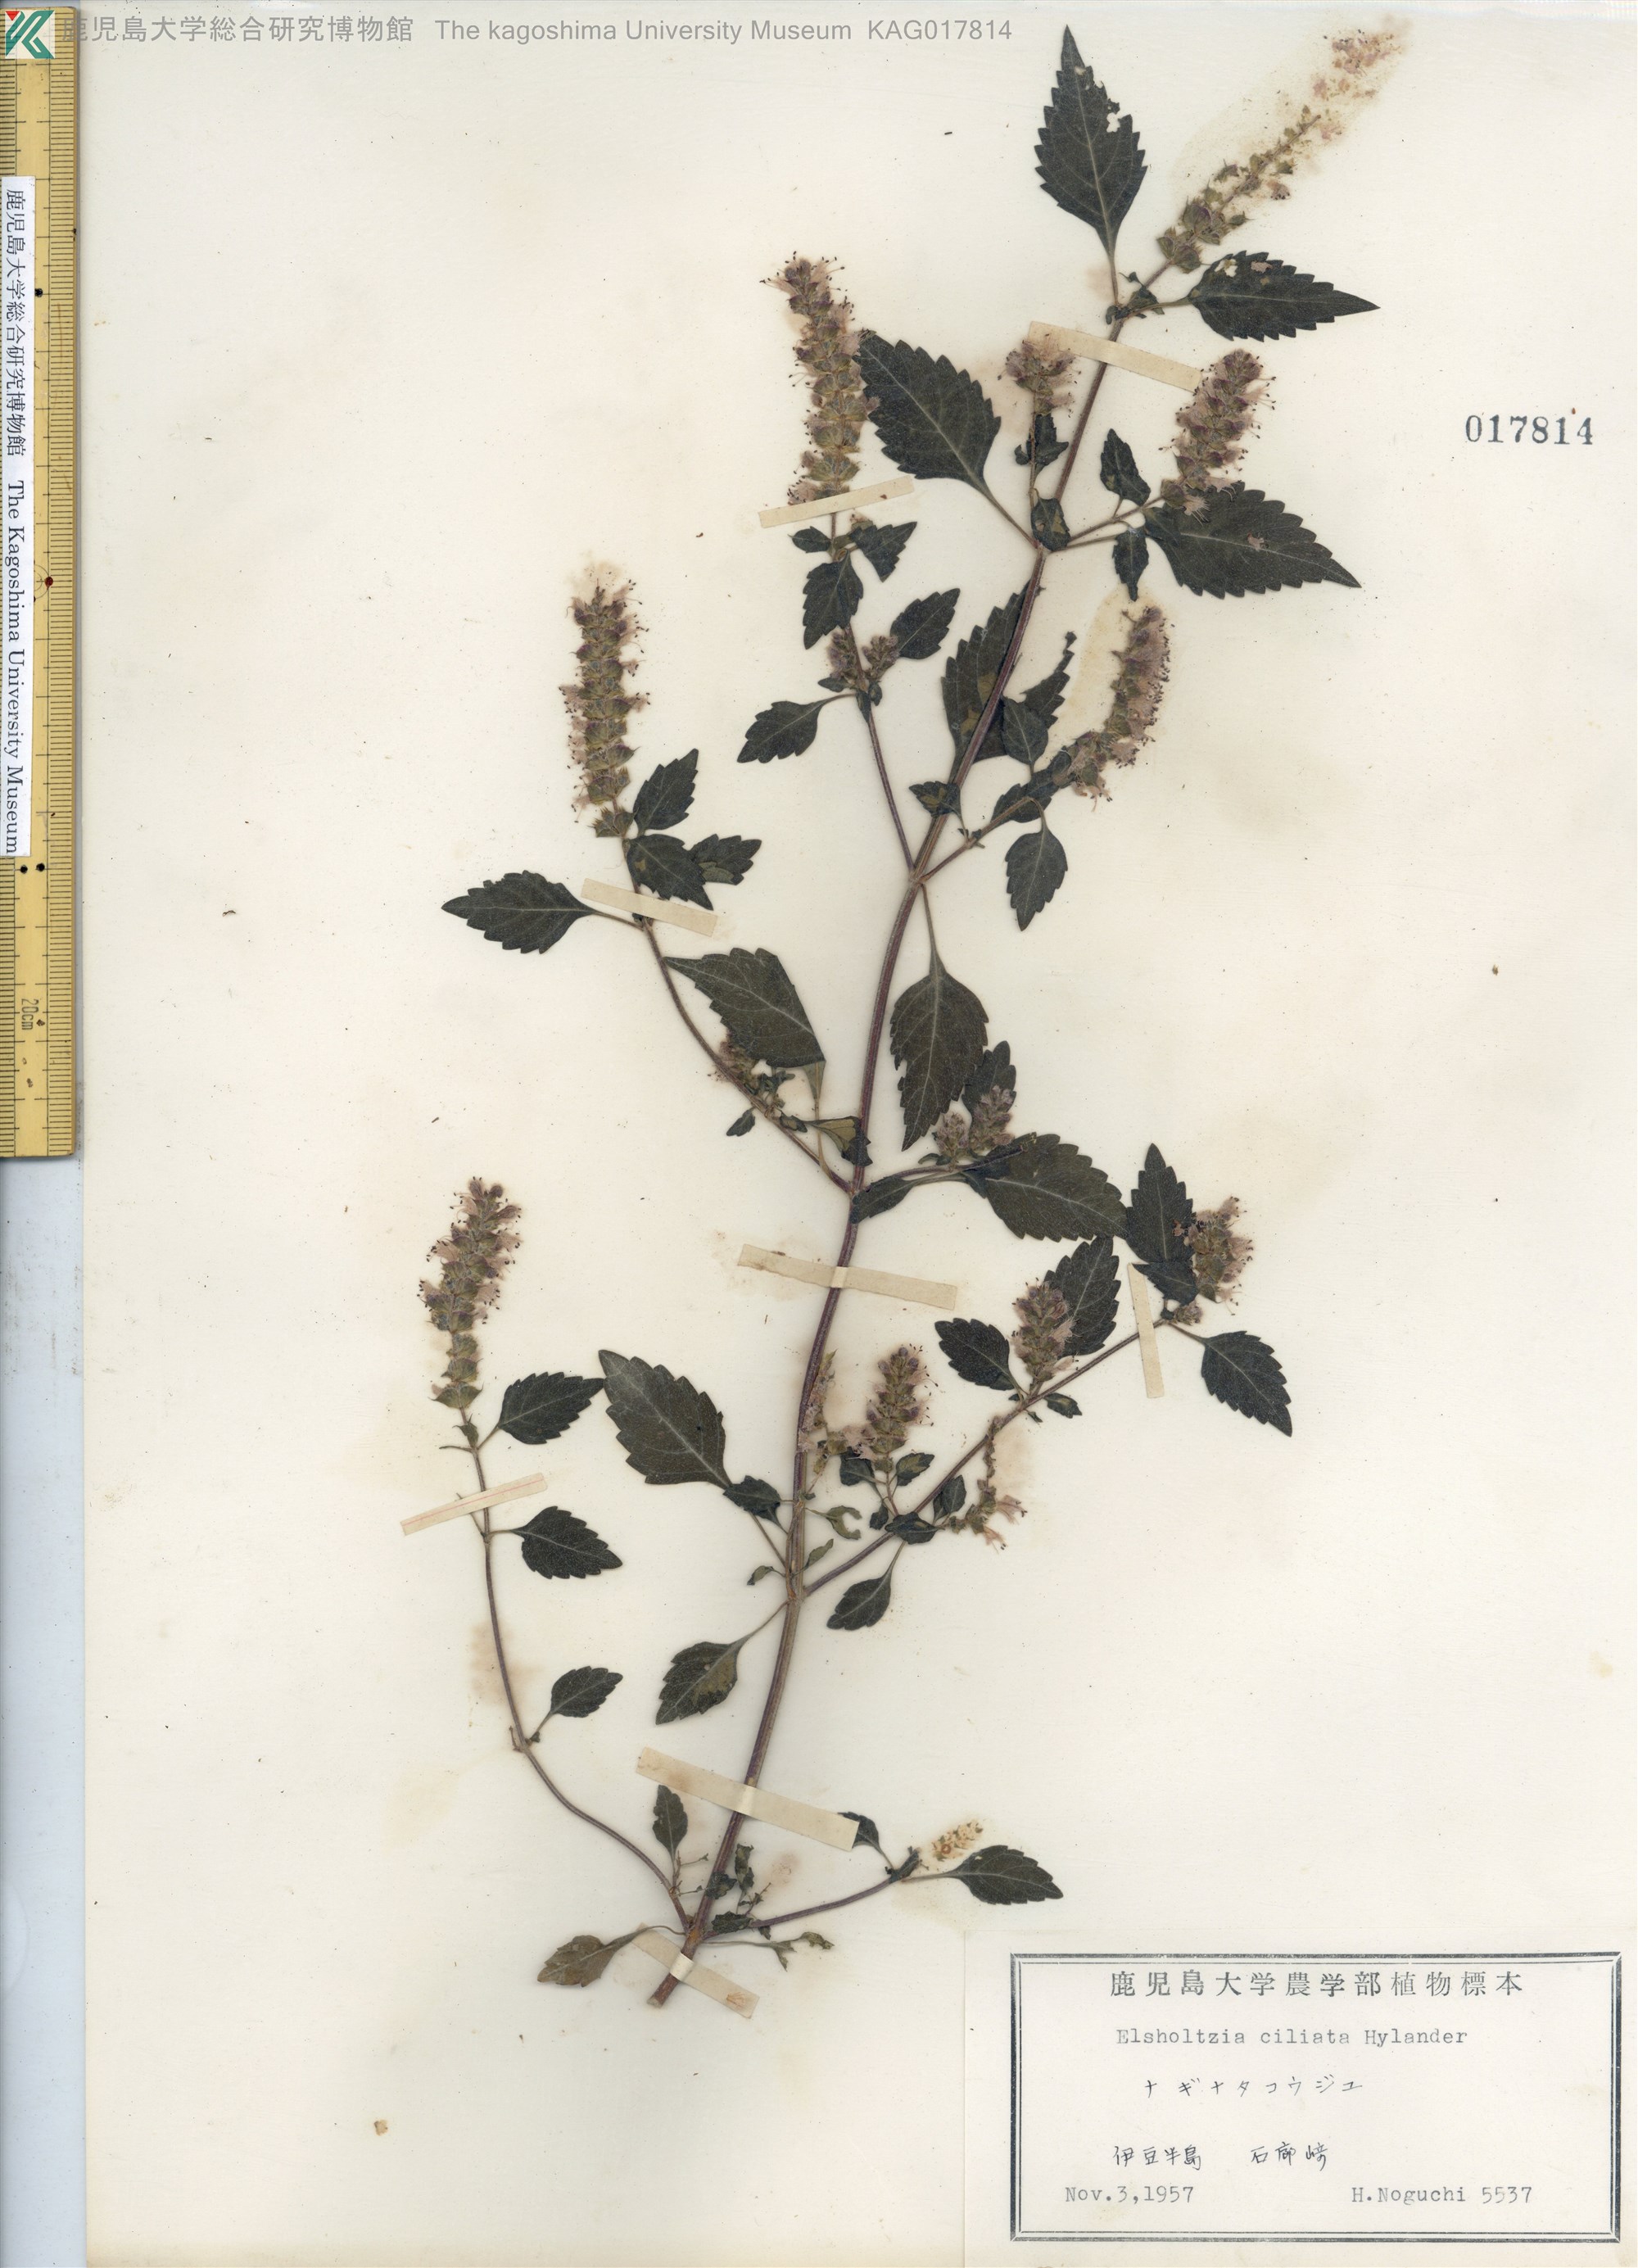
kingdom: Plantae
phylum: Tracheophyta
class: Magnoliopsida
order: Lamiales
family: Lamiaceae
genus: Elsholtzia
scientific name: Elsholtzia ciliata
